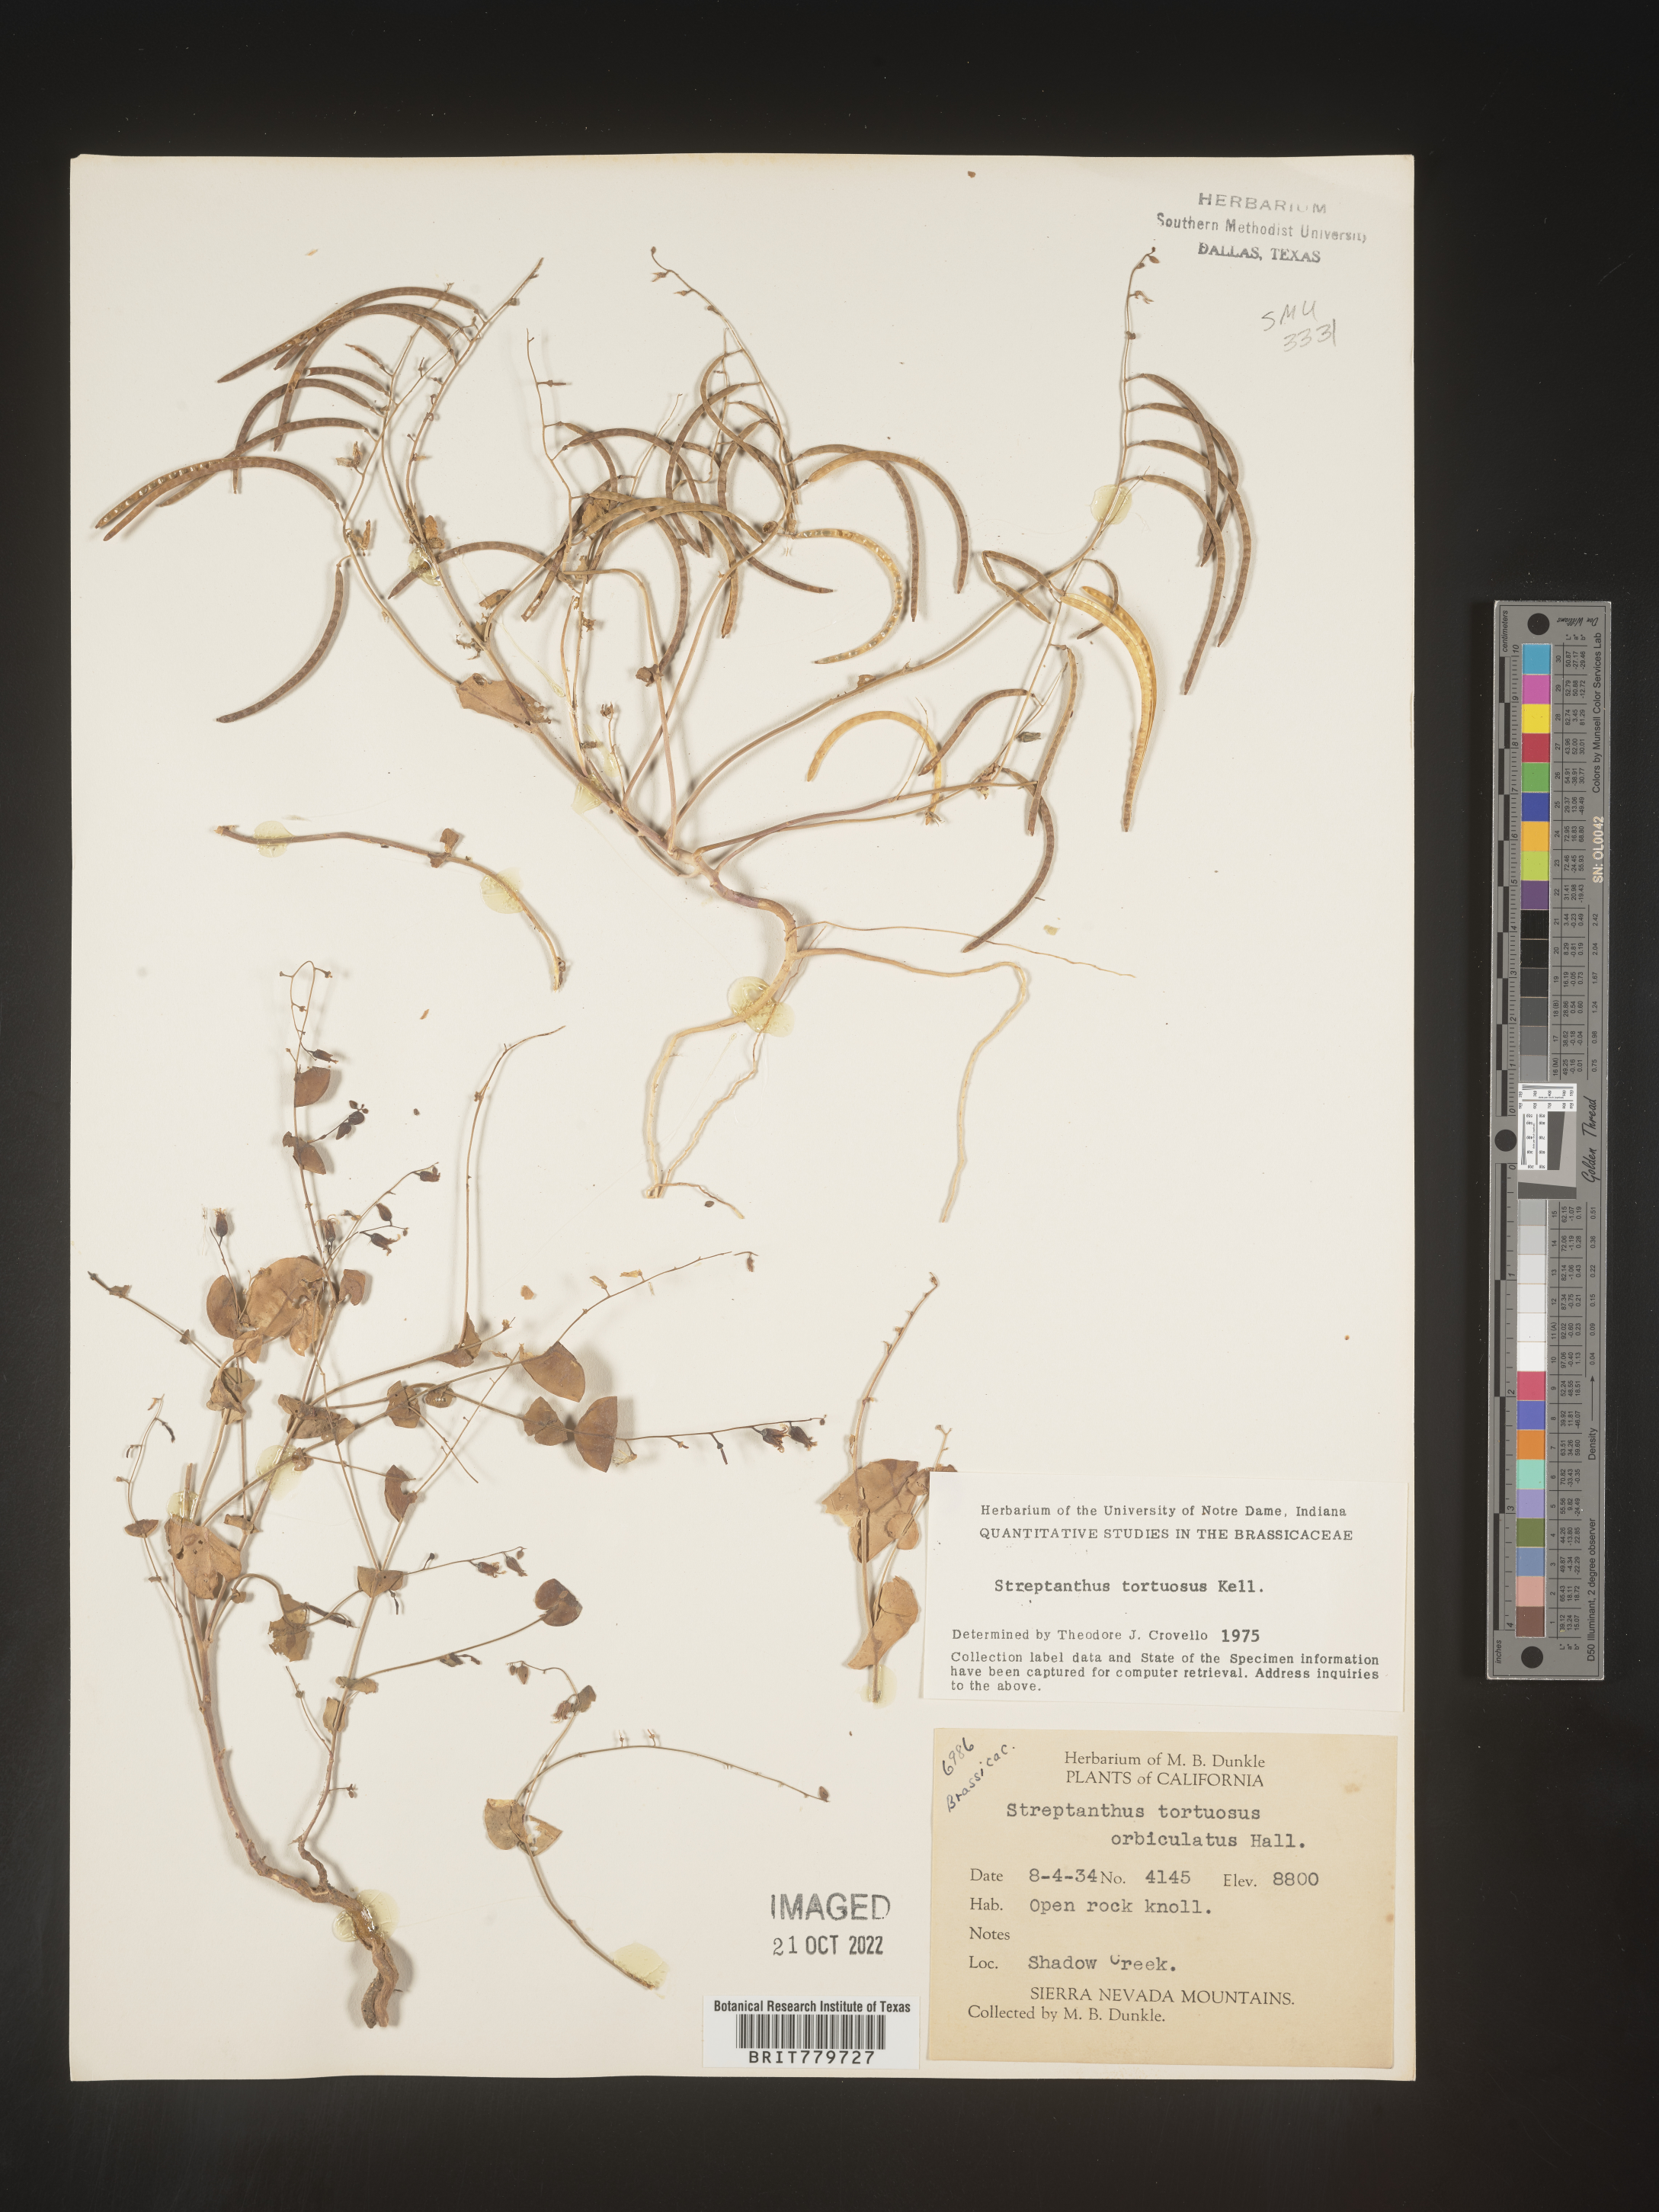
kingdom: Plantae
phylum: Tracheophyta
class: Magnoliopsida
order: Brassicales
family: Brassicaceae
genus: Streptanthus
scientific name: Streptanthus
